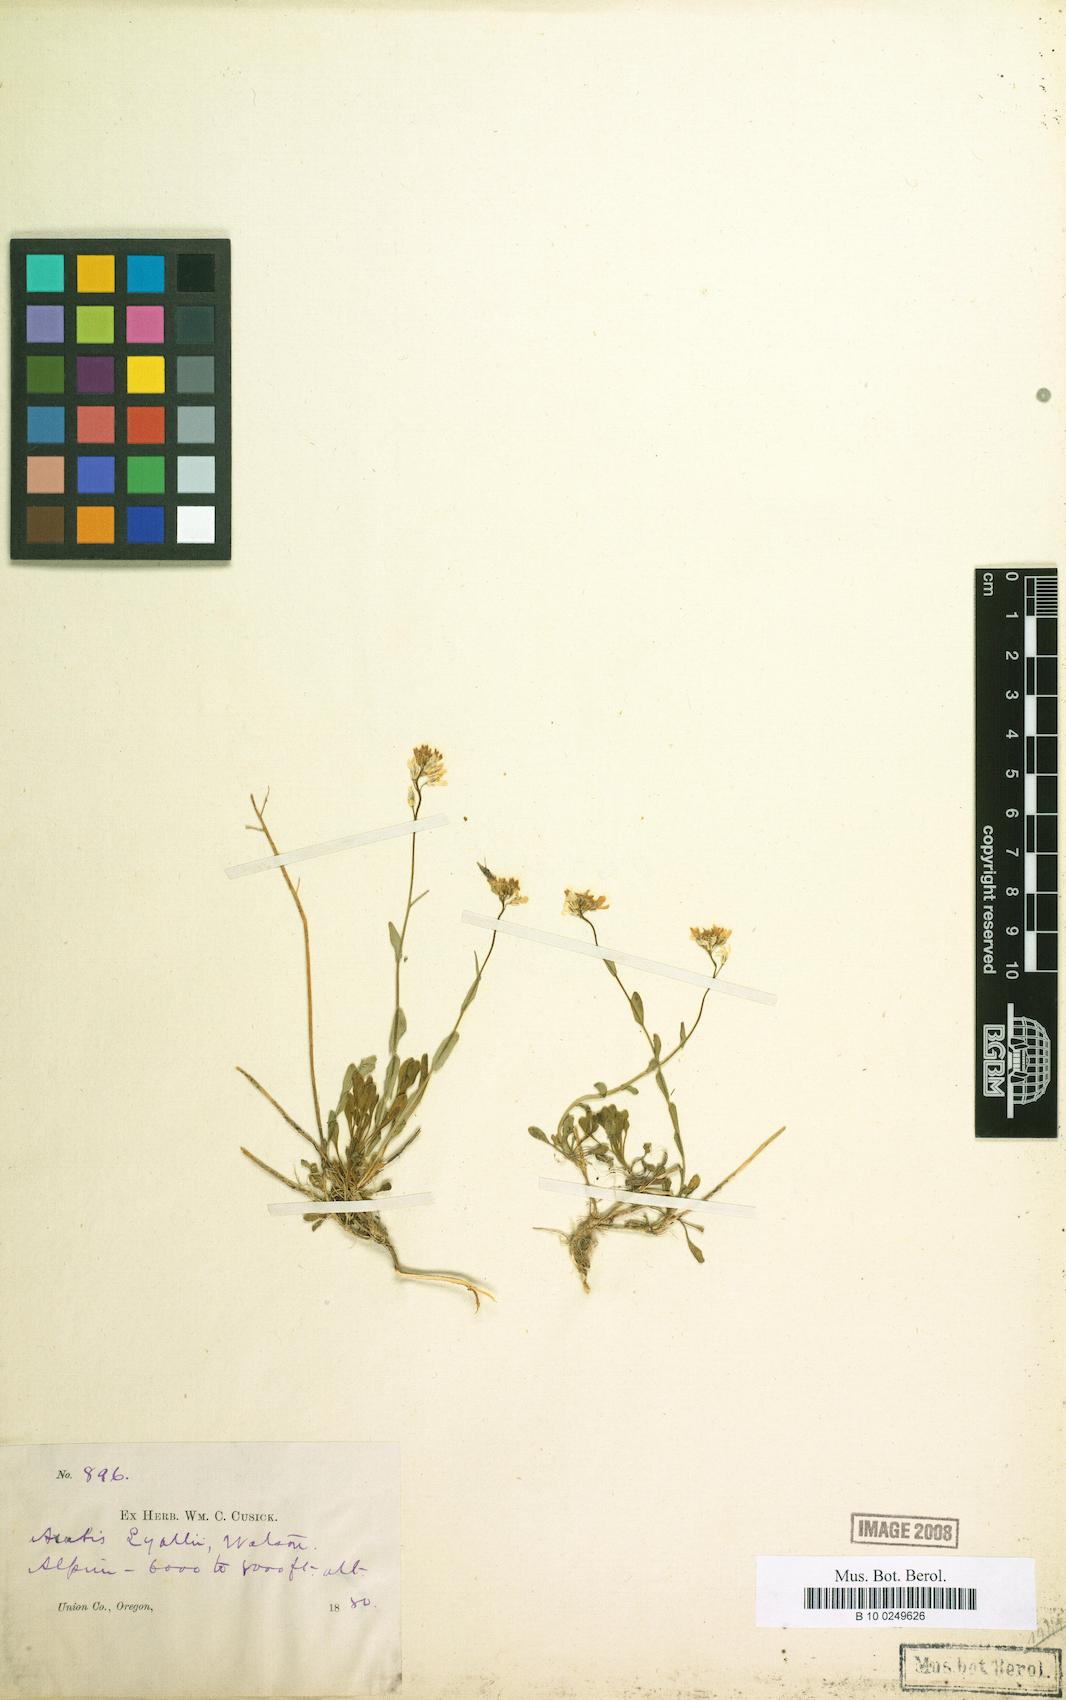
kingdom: Plantae
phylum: Tracheophyta
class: Magnoliopsida
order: Brassicales
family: Brassicaceae
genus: Boechera
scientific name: Boechera lyallii
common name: Lyall's rockcress
